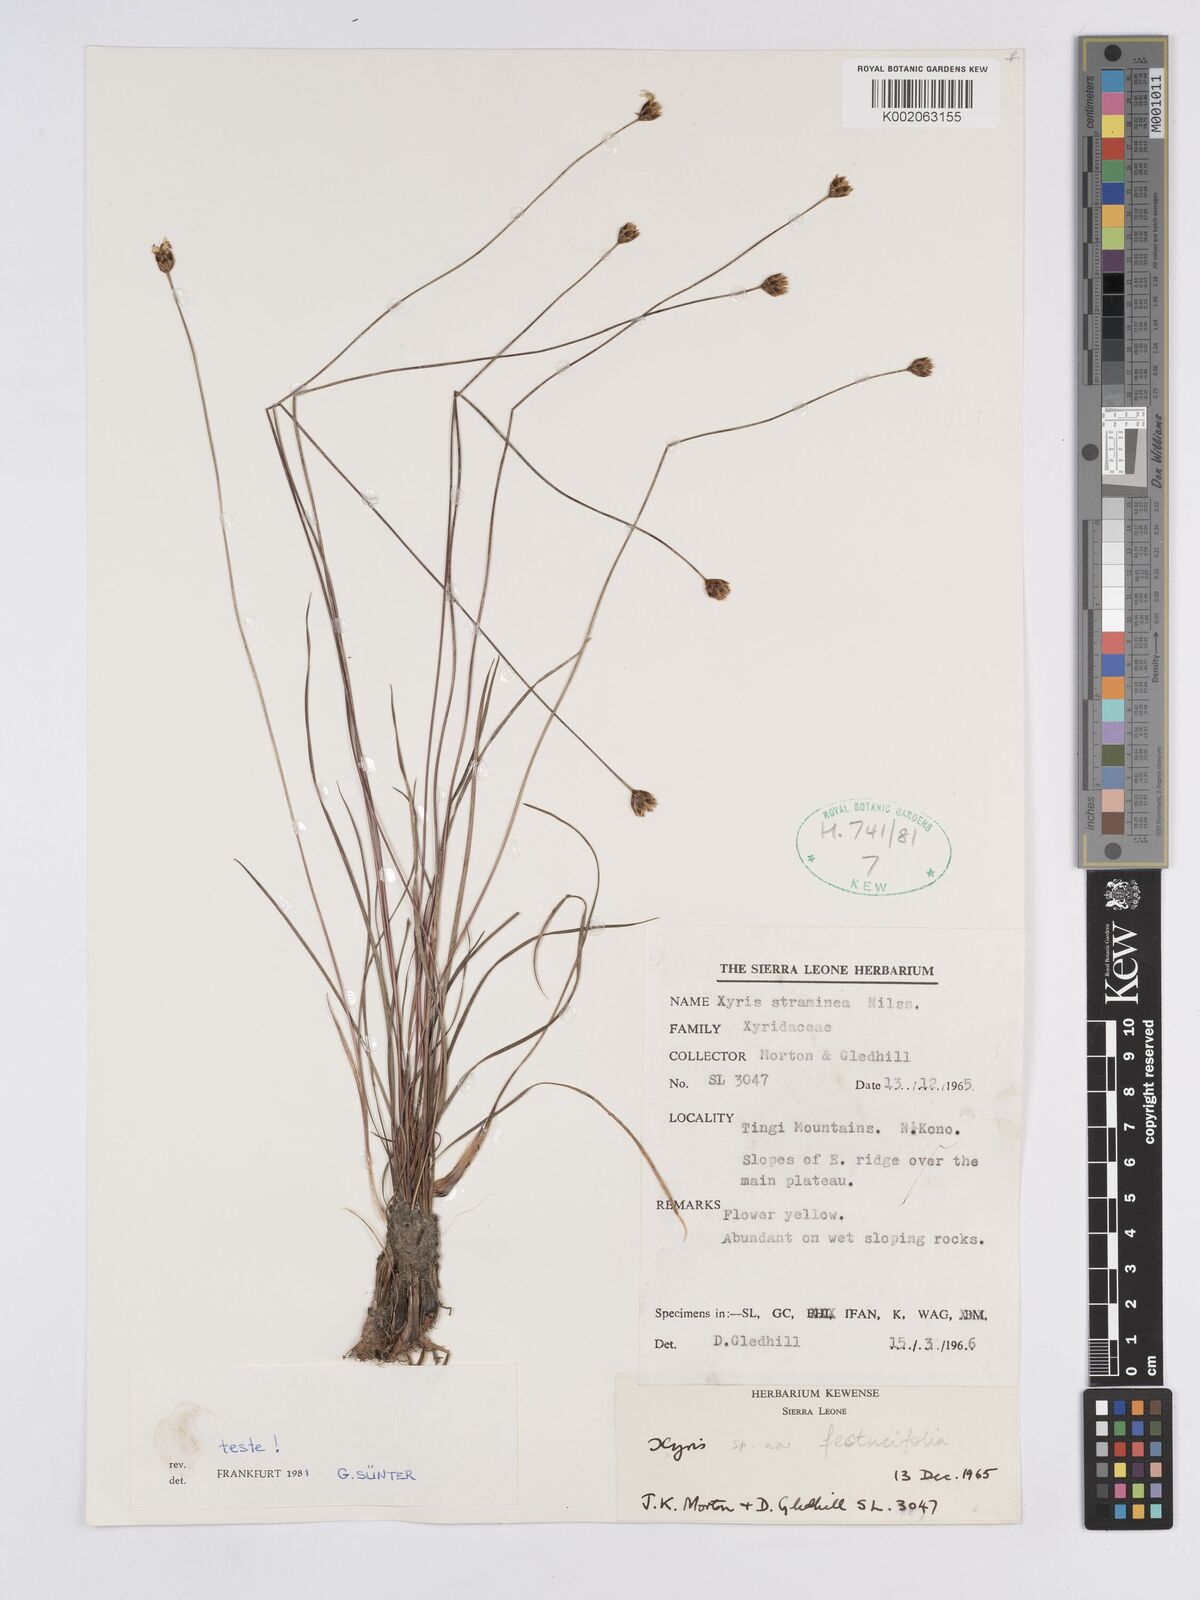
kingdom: Plantae
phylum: Tracheophyta
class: Liliopsida
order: Poales
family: Xyridaceae
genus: Xyris
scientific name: Xyris festucifolia
